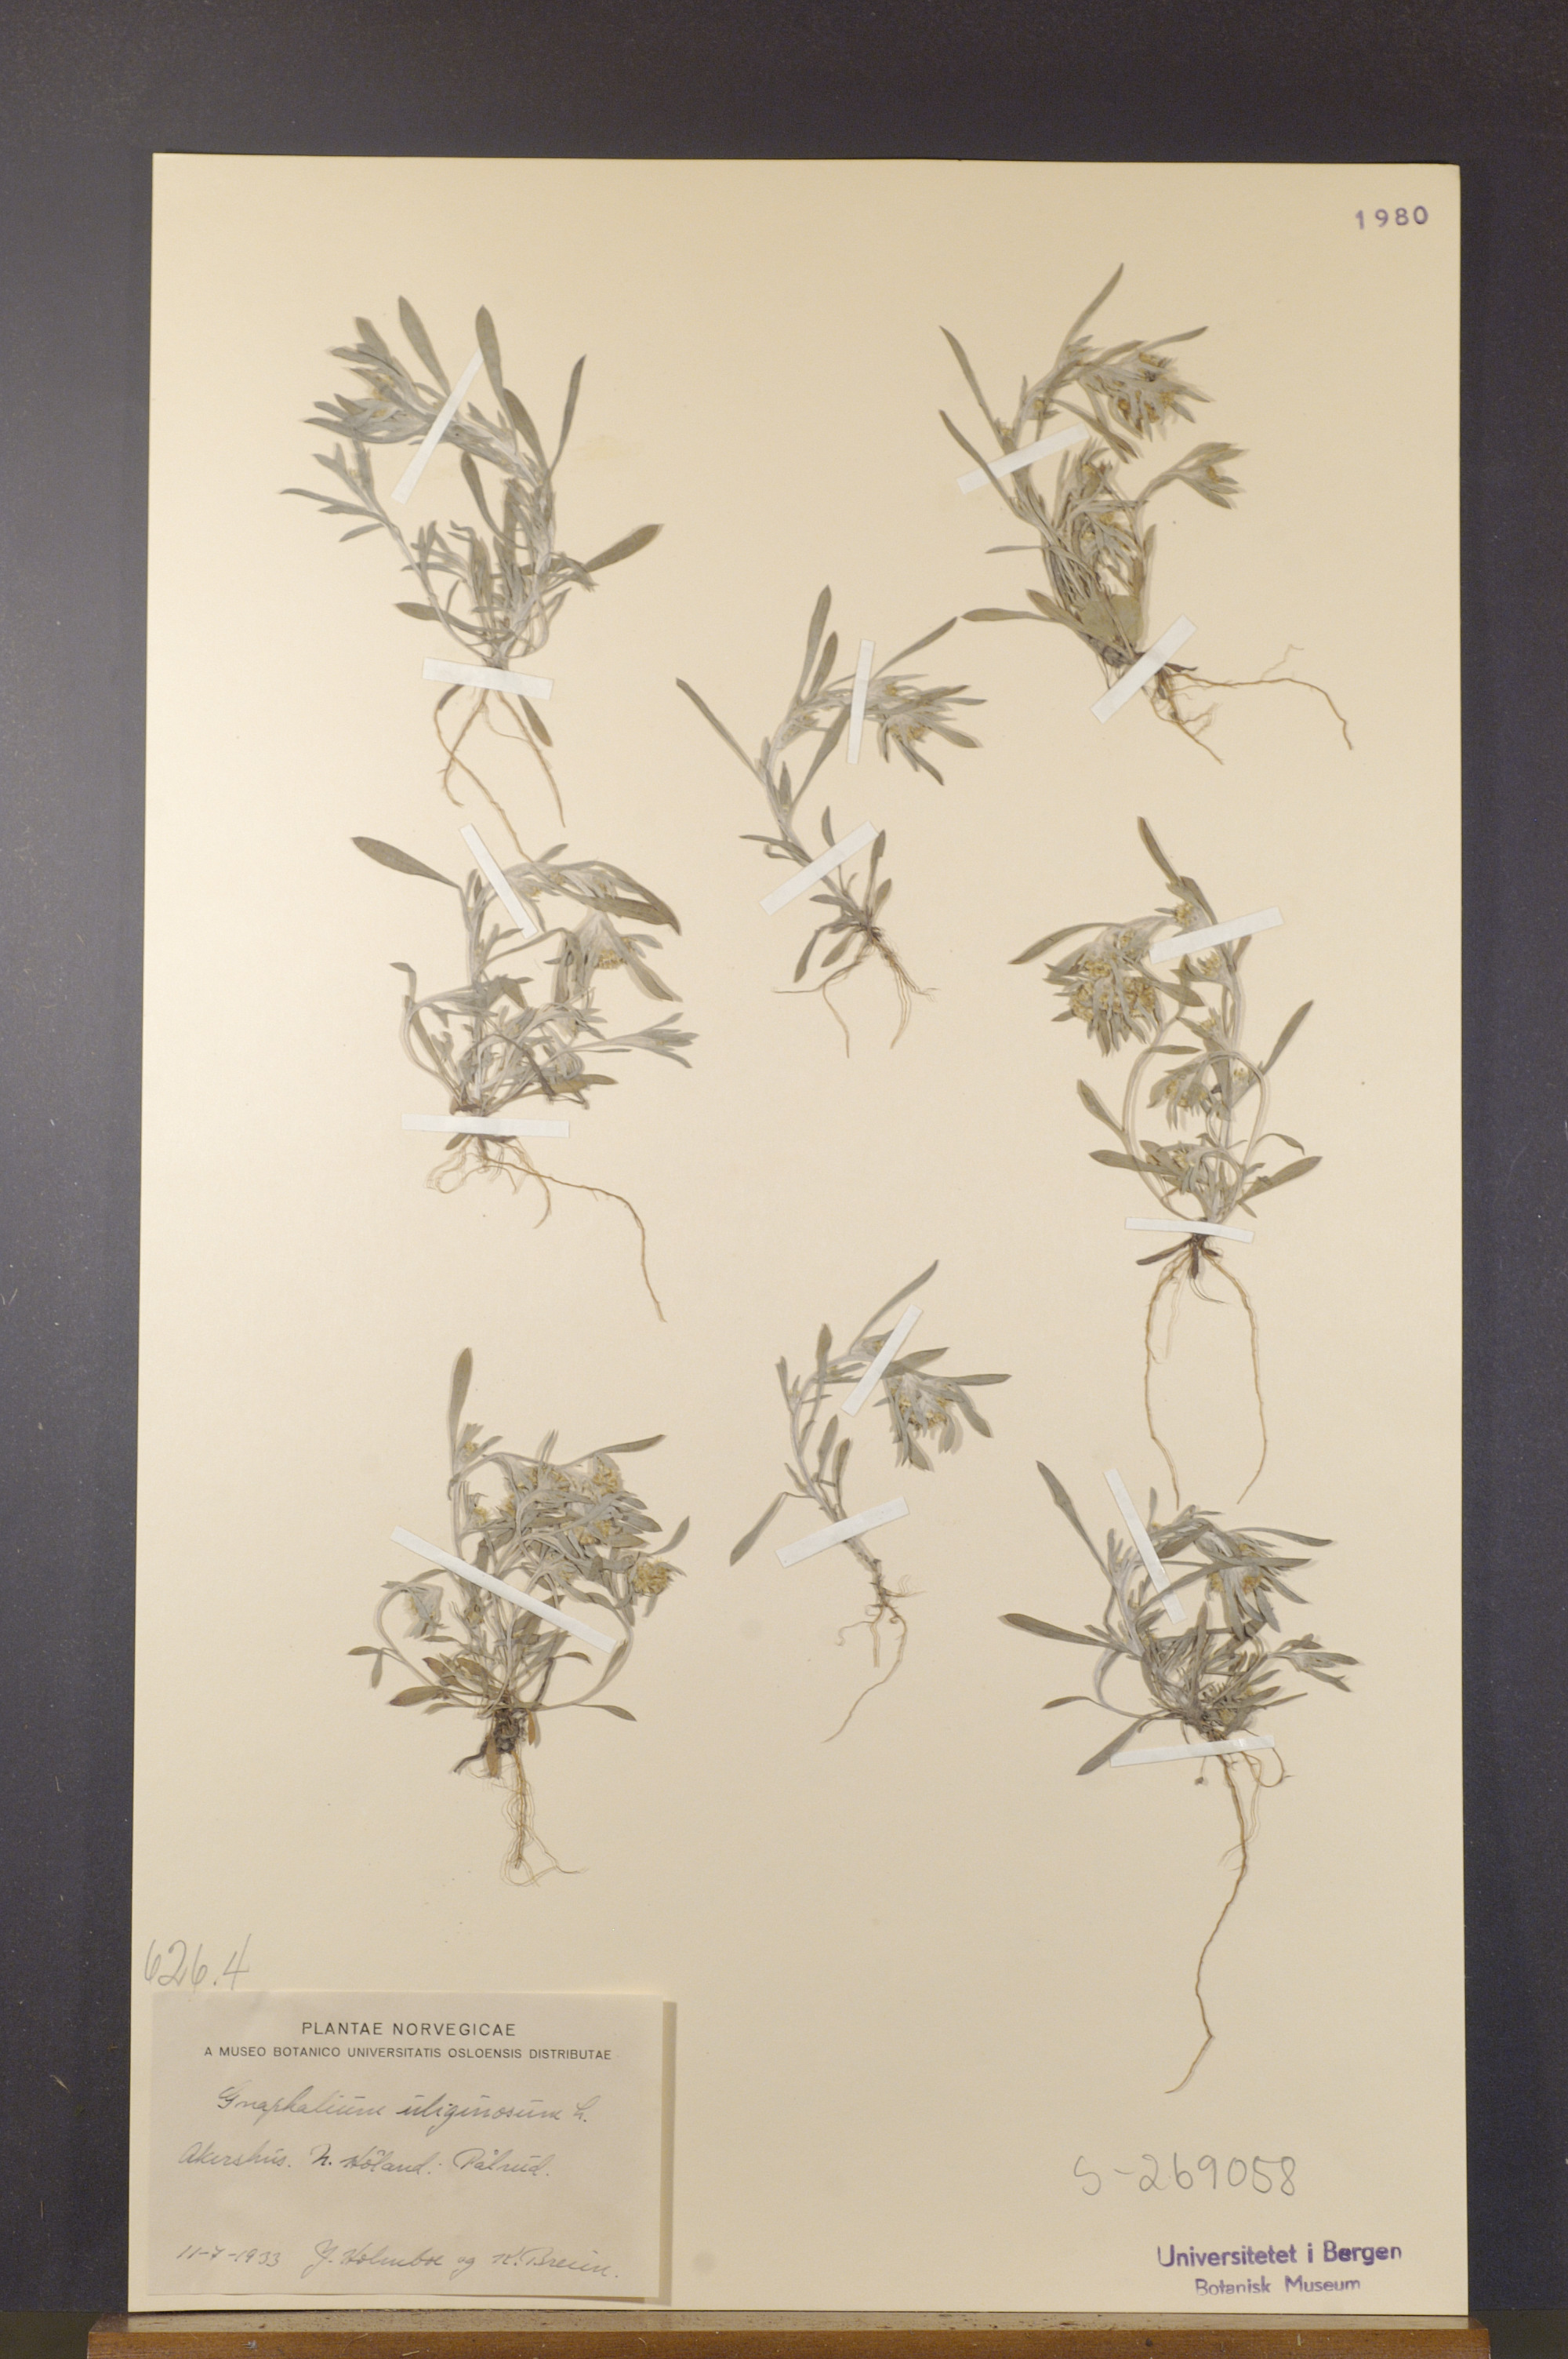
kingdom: Plantae
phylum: Tracheophyta
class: Magnoliopsida
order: Asterales
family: Asteraceae
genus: Gnaphalium
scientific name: Gnaphalium uliginosum
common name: Marsh cudweed
